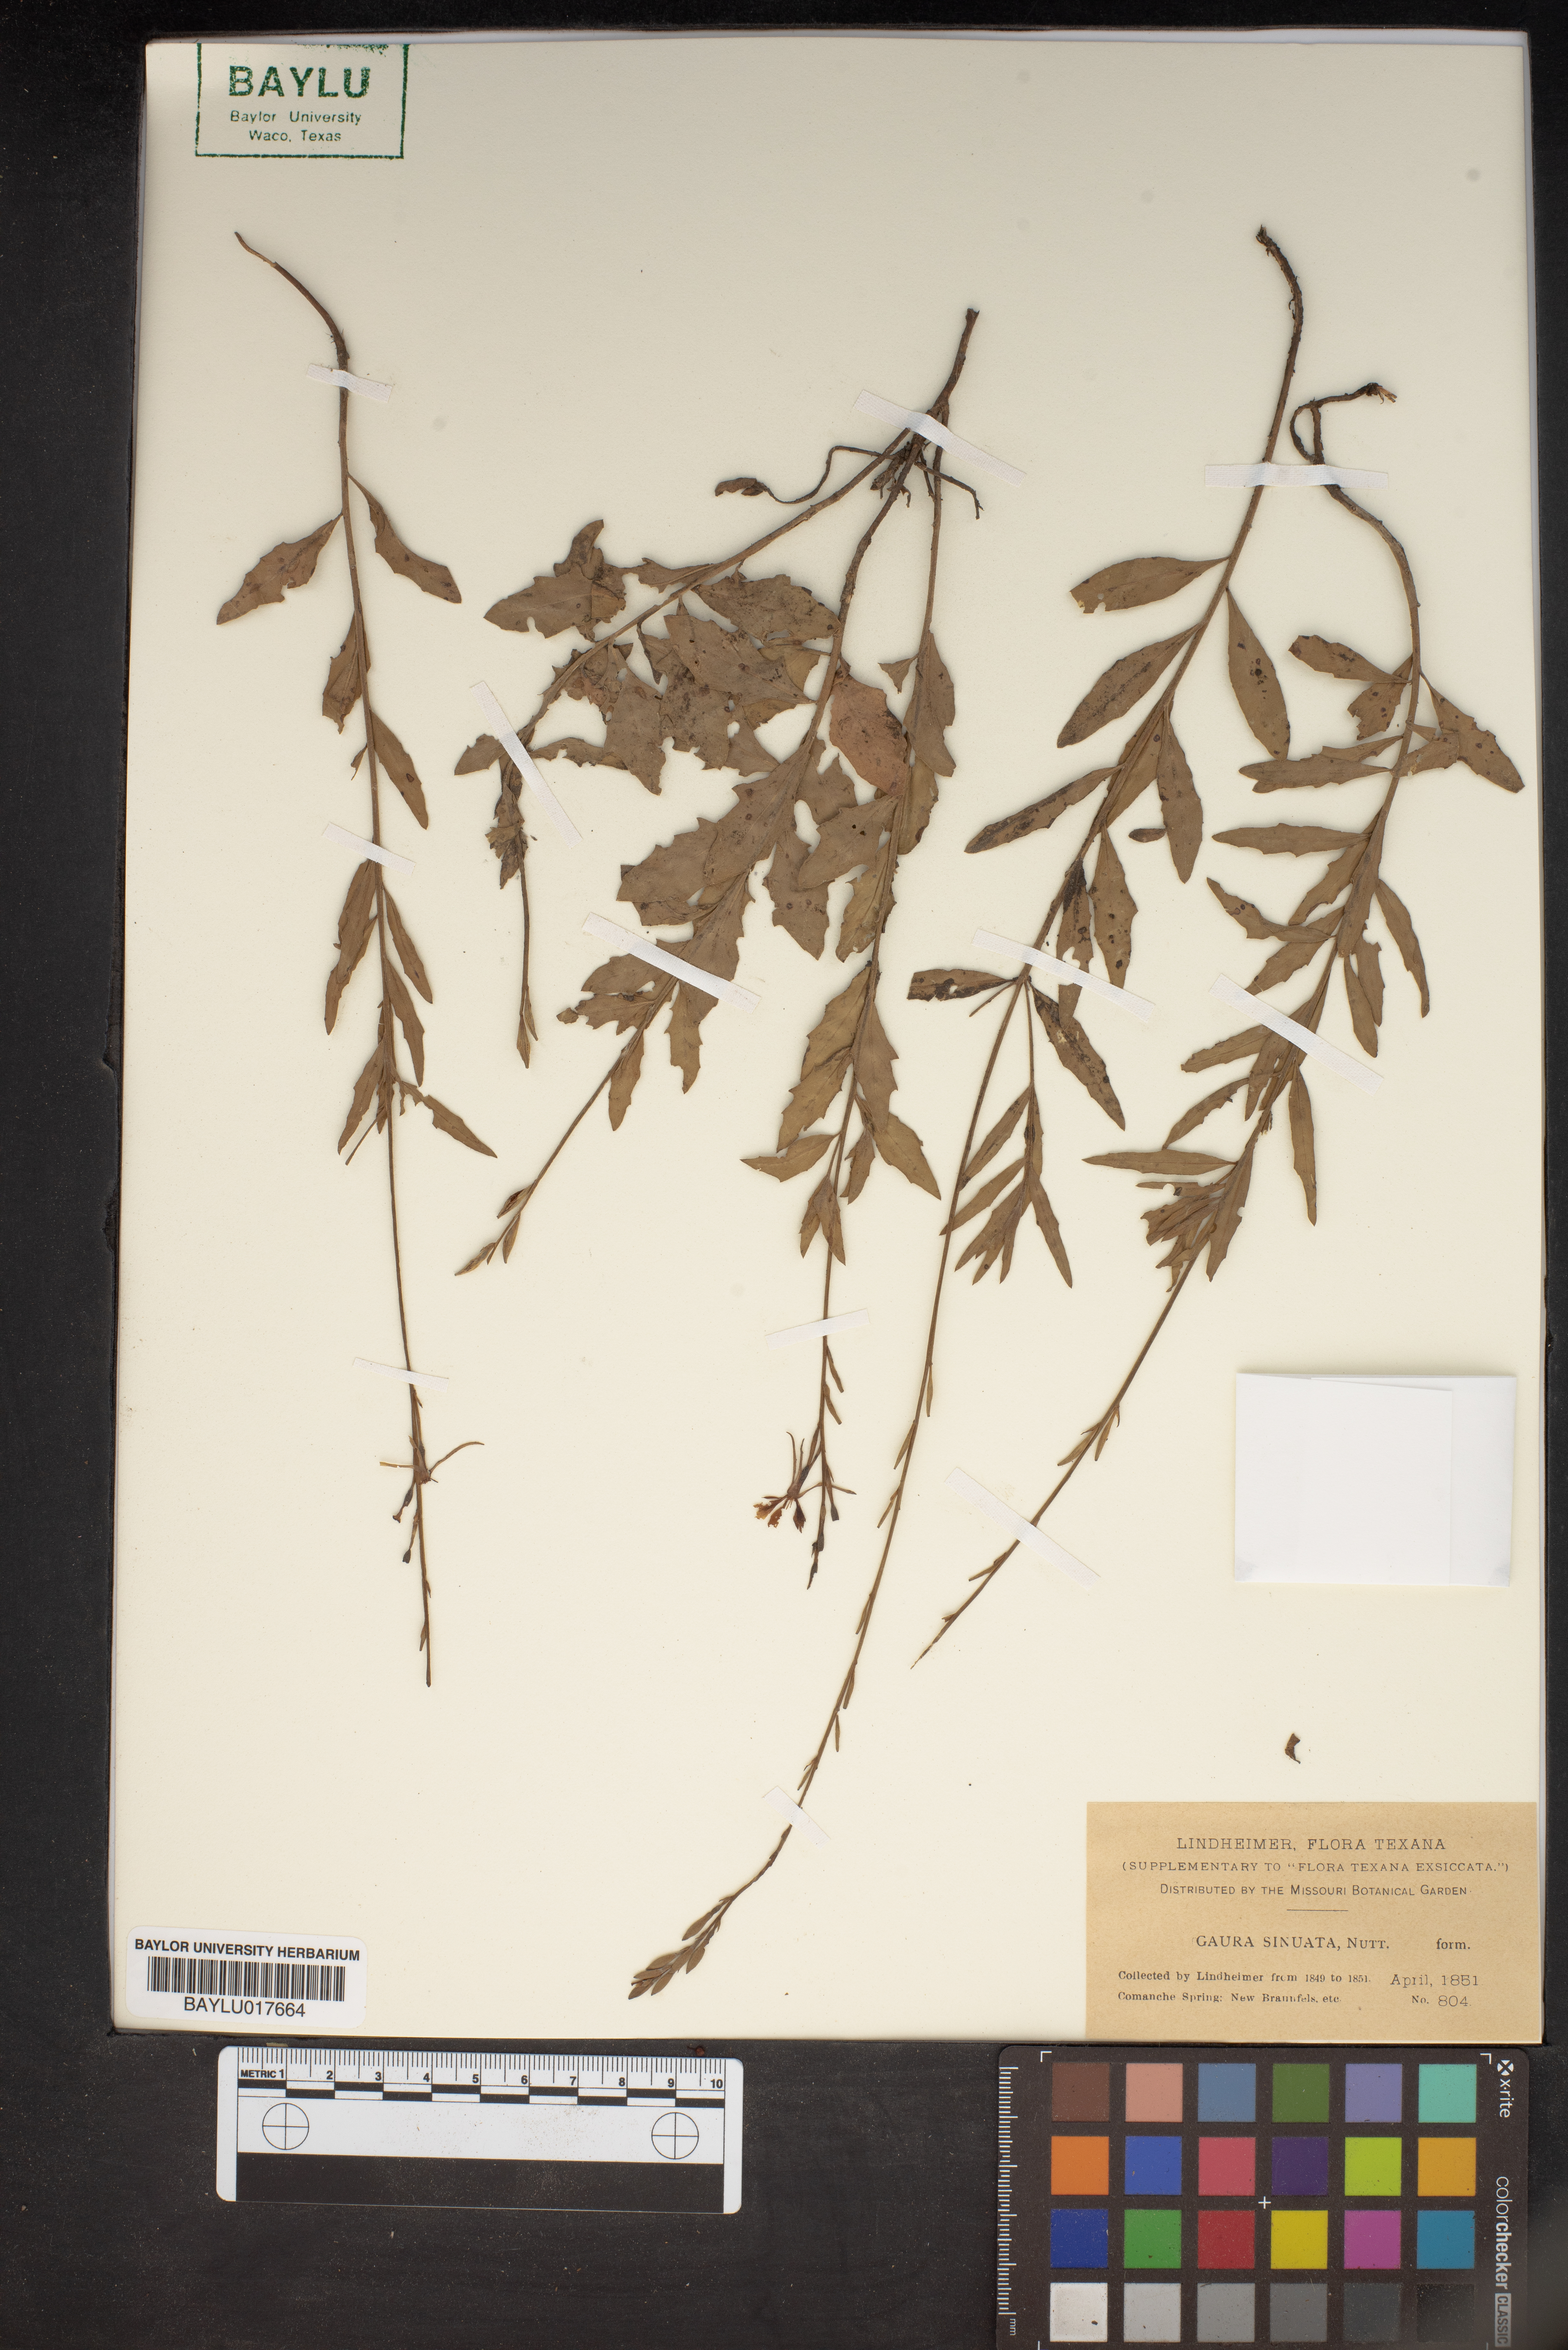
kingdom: Plantae
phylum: Tracheophyta
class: Magnoliopsida
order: Myrtales
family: Onagraceae
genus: Oenothera
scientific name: Oenothera sinuosa
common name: Wavyleaf beeblossom
